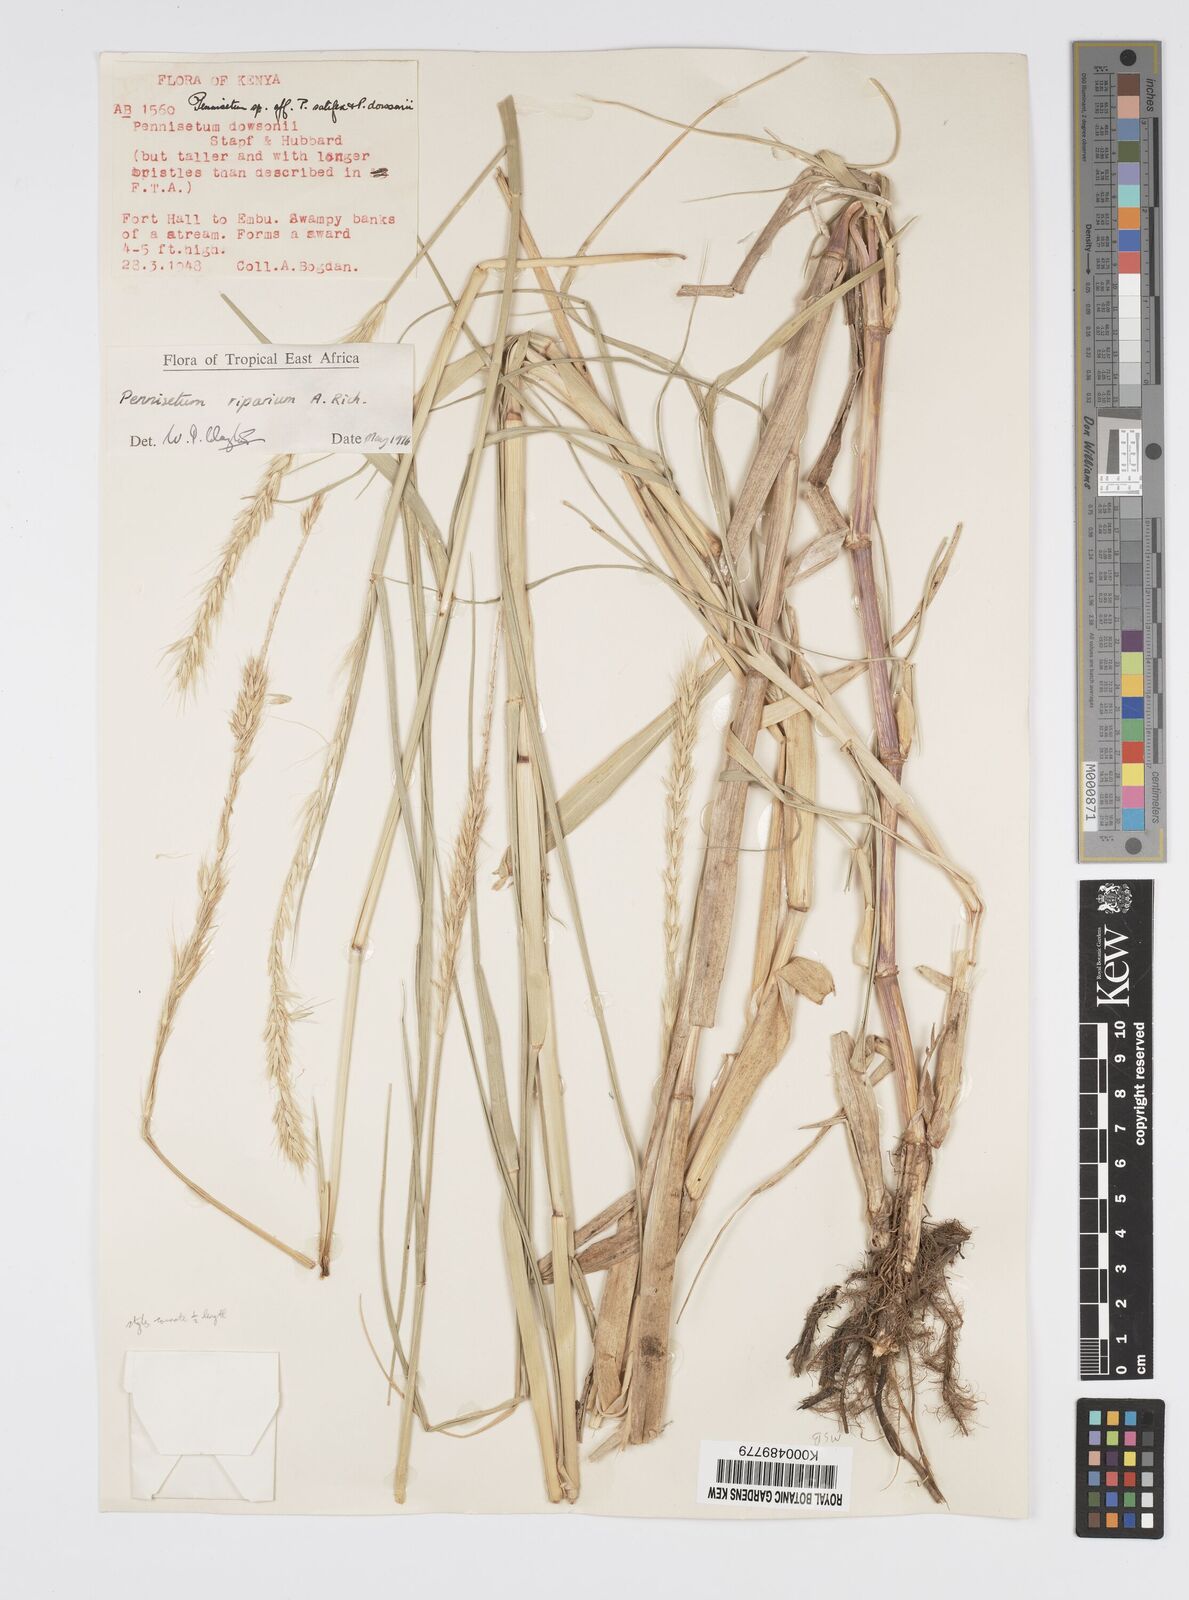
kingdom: Plantae
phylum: Tracheophyta
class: Liliopsida
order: Poales
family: Poaceae
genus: Cenchrus
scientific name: Cenchrus riparius
